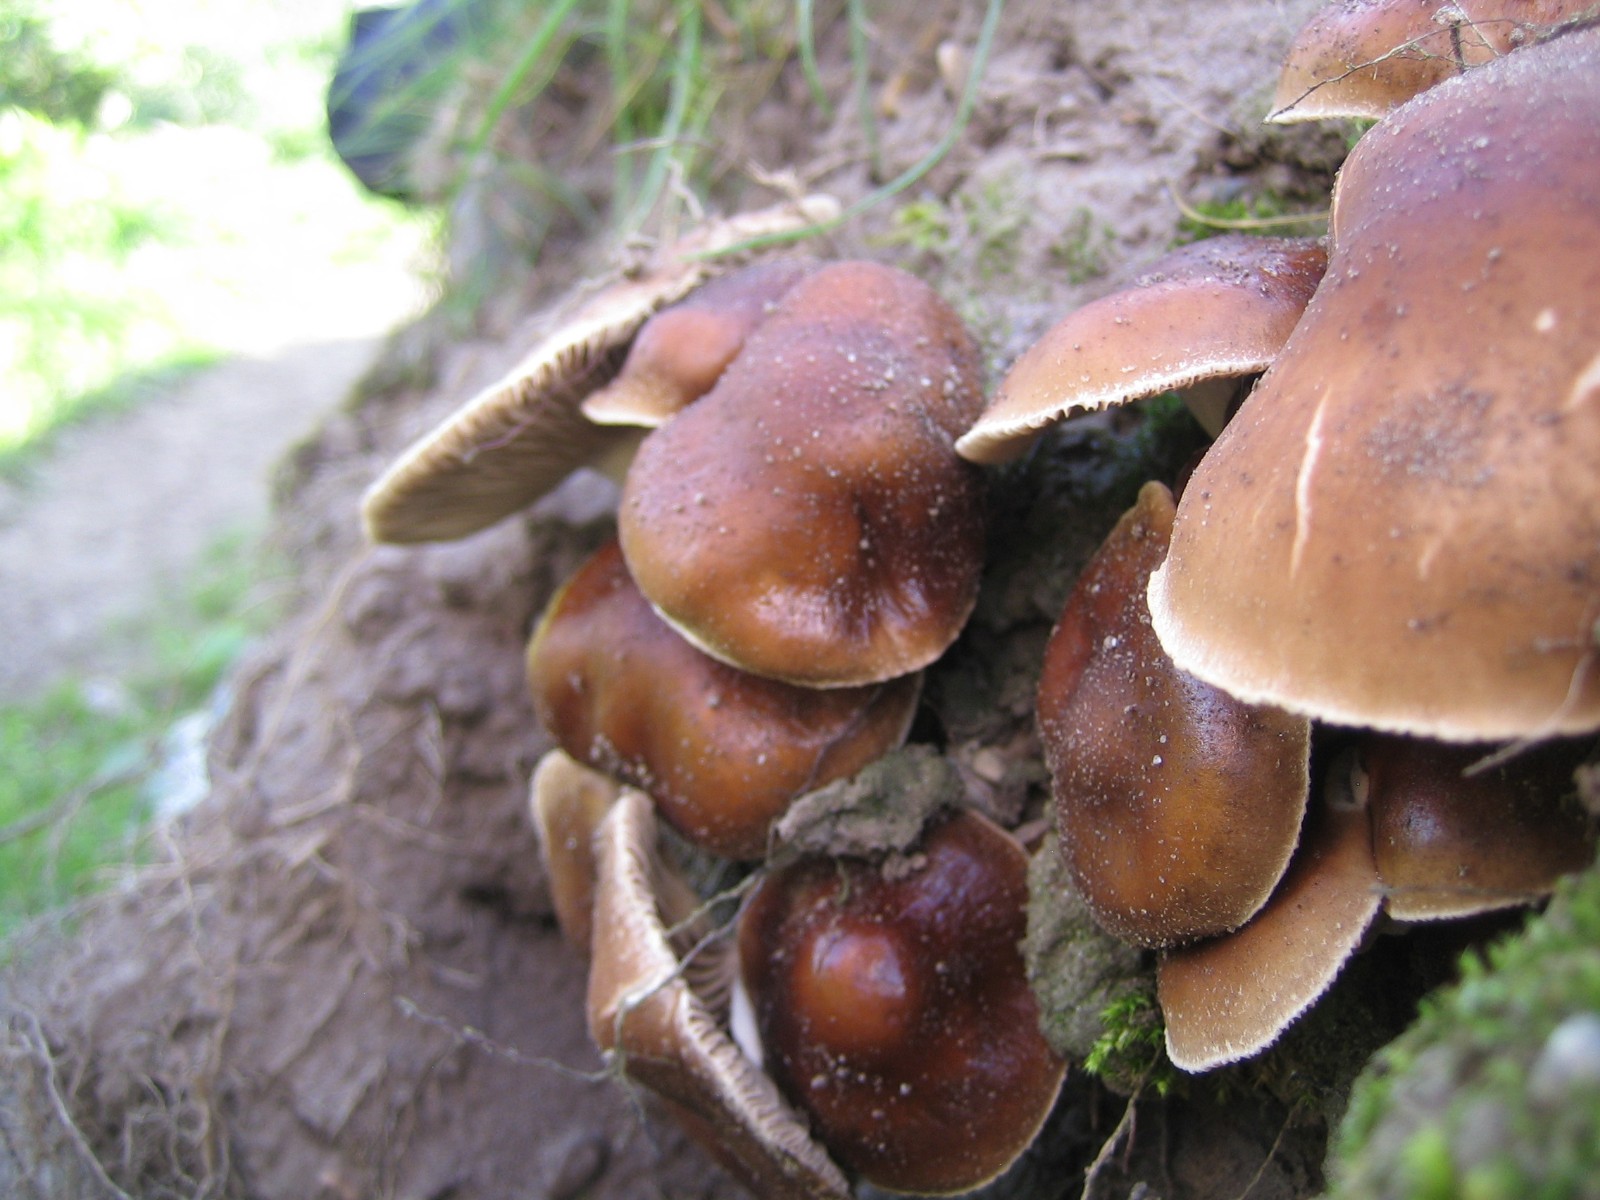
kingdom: Fungi
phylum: Basidiomycota
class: Agaricomycetes
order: Agaricales
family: Tubariaceae
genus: Cyclocybe
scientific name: Cyclocybe erebia
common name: mørk agerhat
